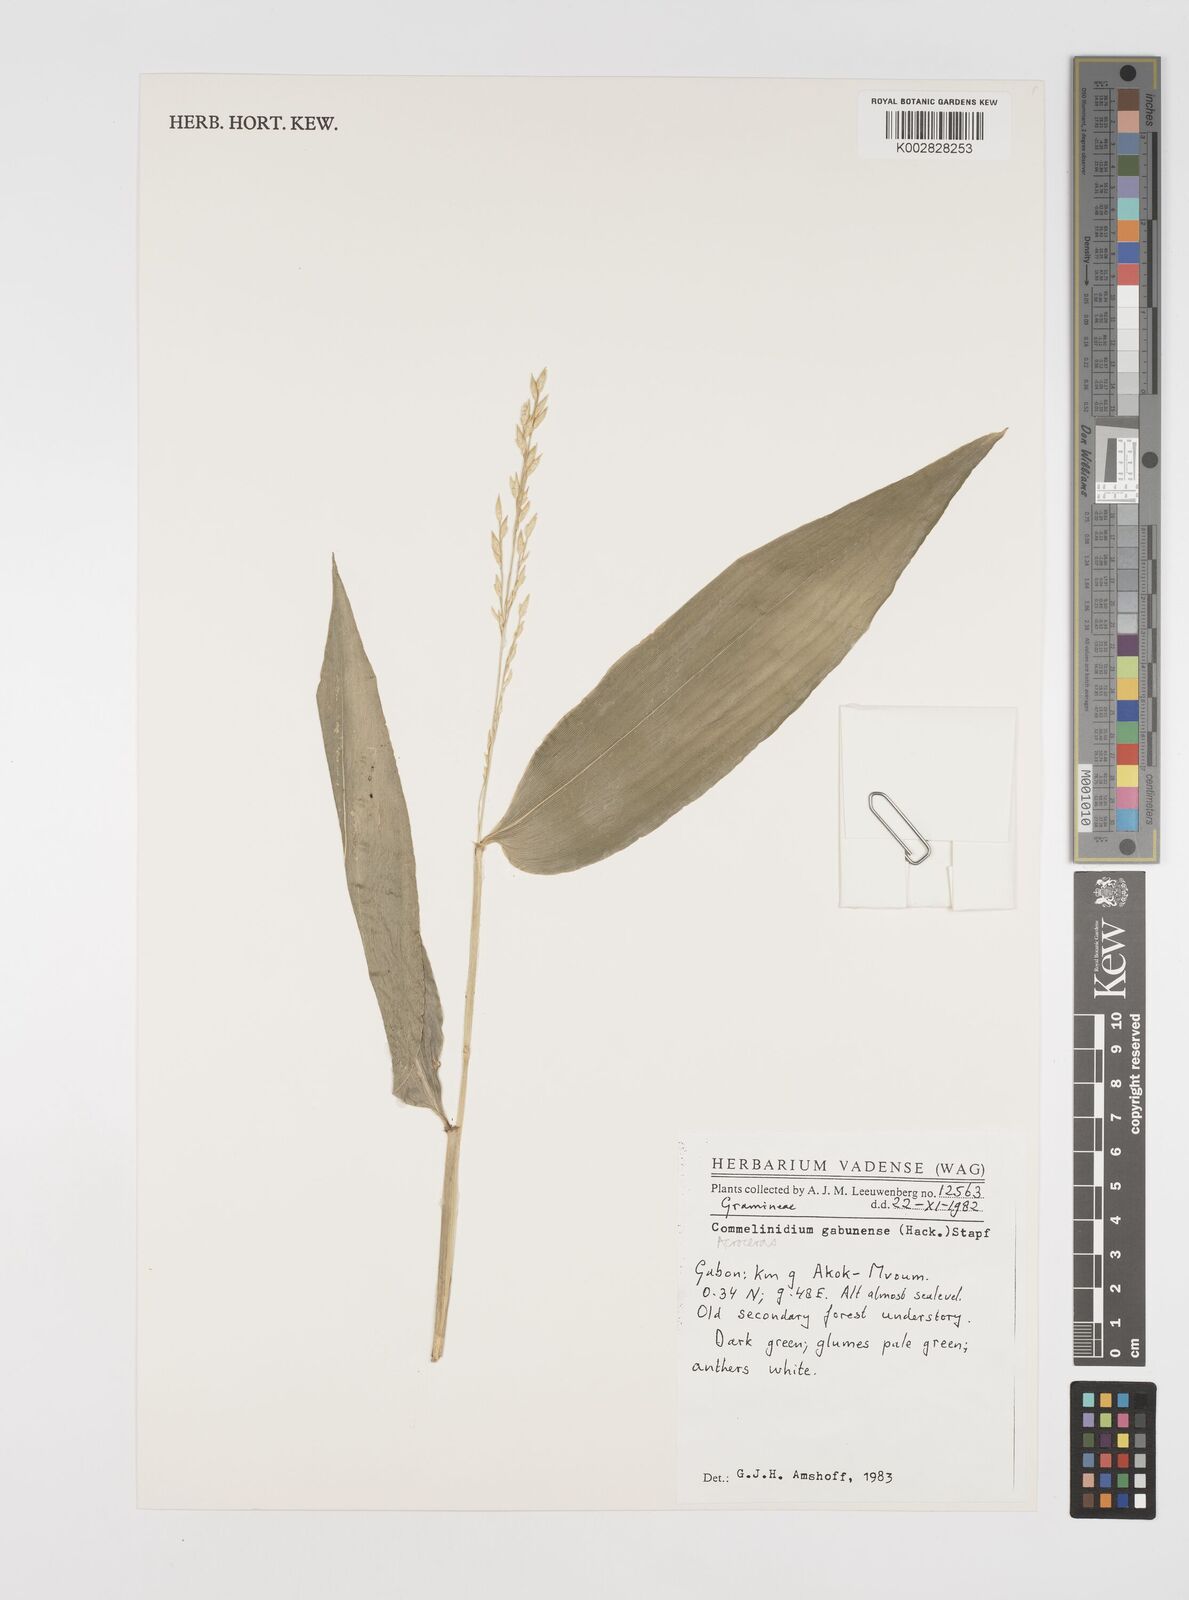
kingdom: Plantae
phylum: Tracheophyta
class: Liliopsida
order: Poales
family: Poaceae
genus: Acroceras
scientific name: Acroceras gabunense
